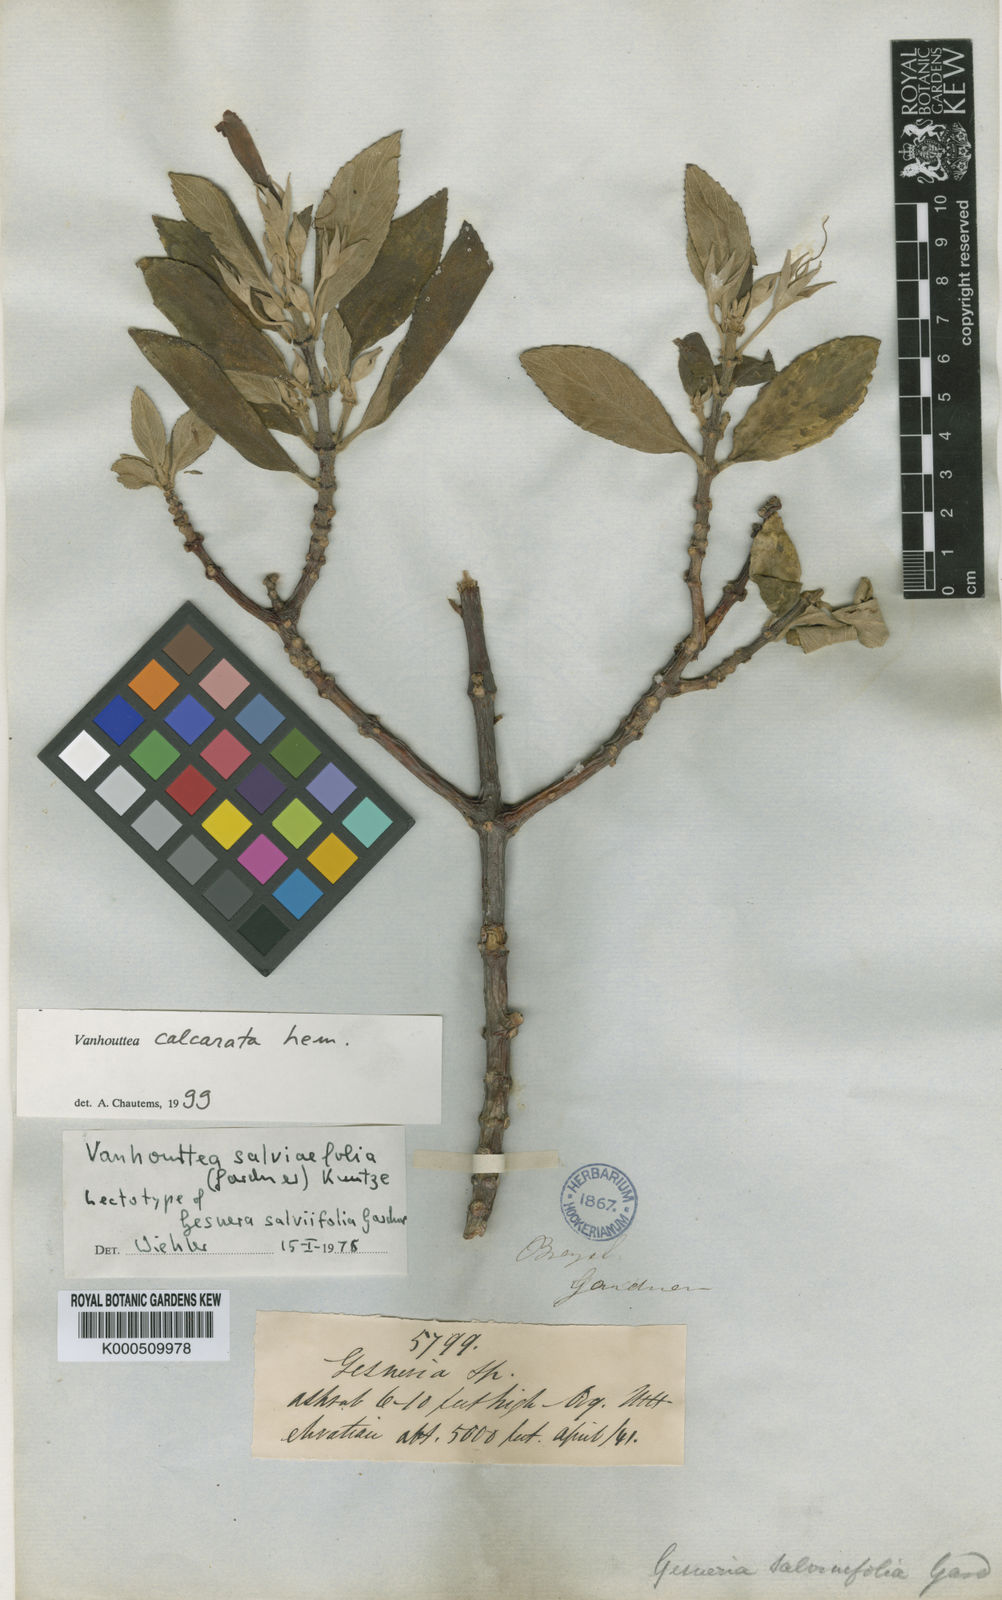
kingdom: Plantae
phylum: Tracheophyta
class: Magnoliopsida
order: Lamiales
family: Gesneriaceae
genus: Vanhouttea
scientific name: Vanhouttea calcarata
